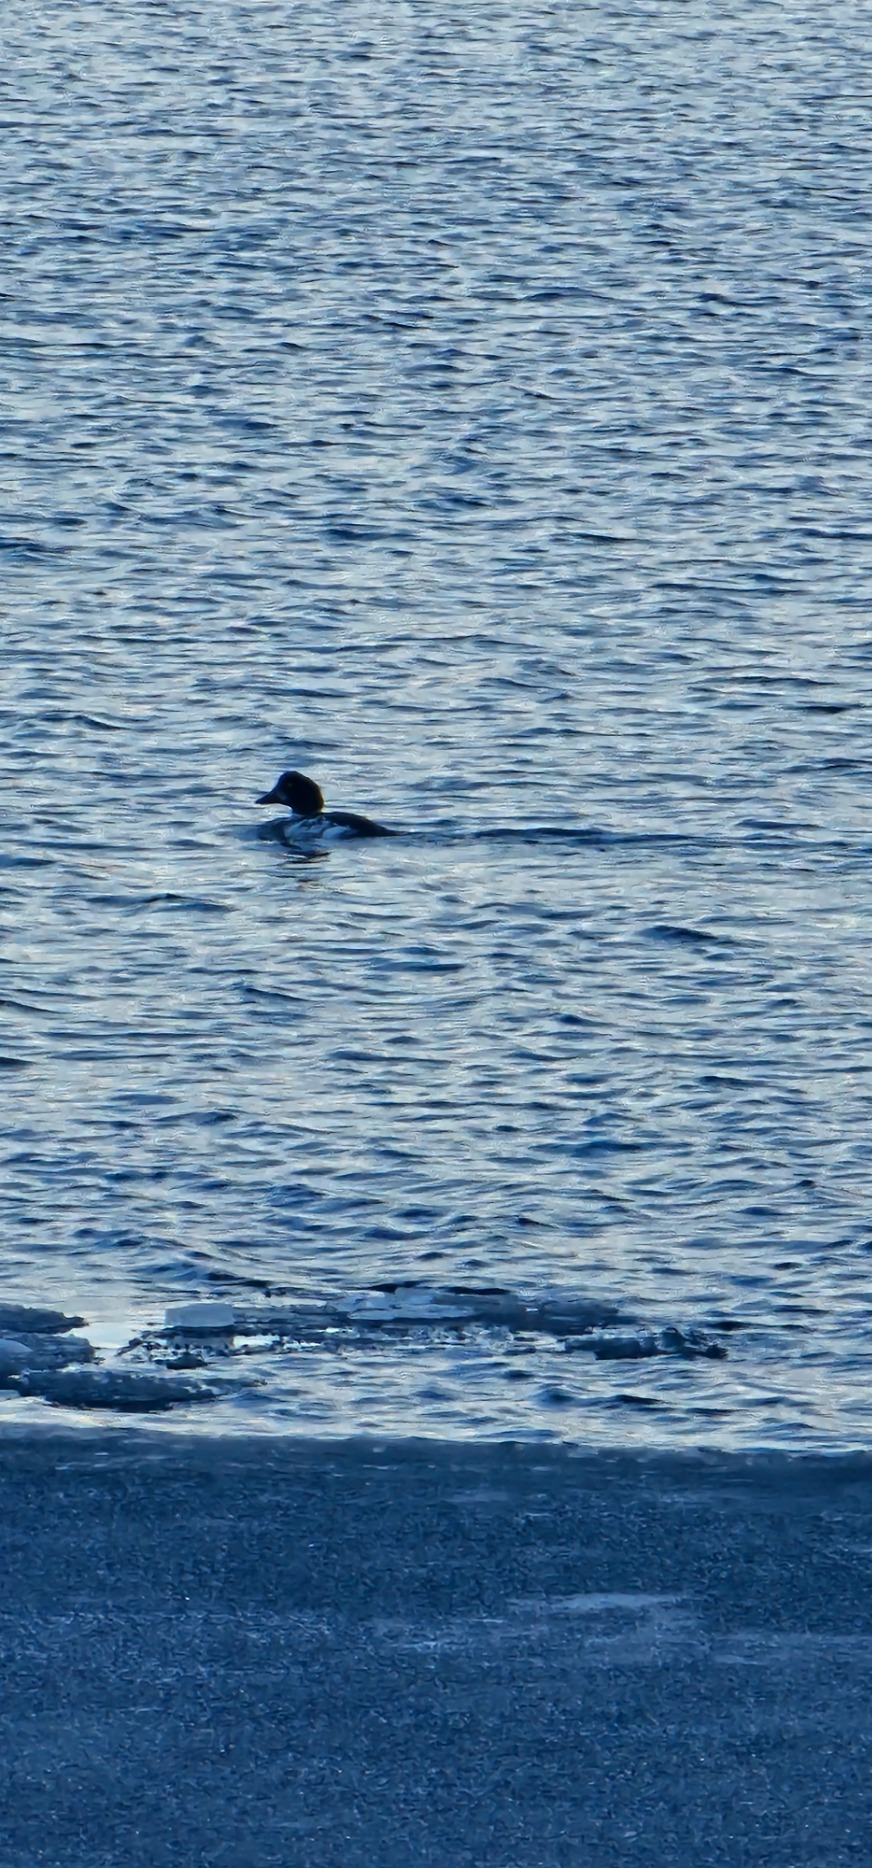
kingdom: Animalia
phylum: Chordata
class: Aves
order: Anseriformes
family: Anatidae
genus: Bucephala
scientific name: Bucephala clangula
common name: Hvinand
